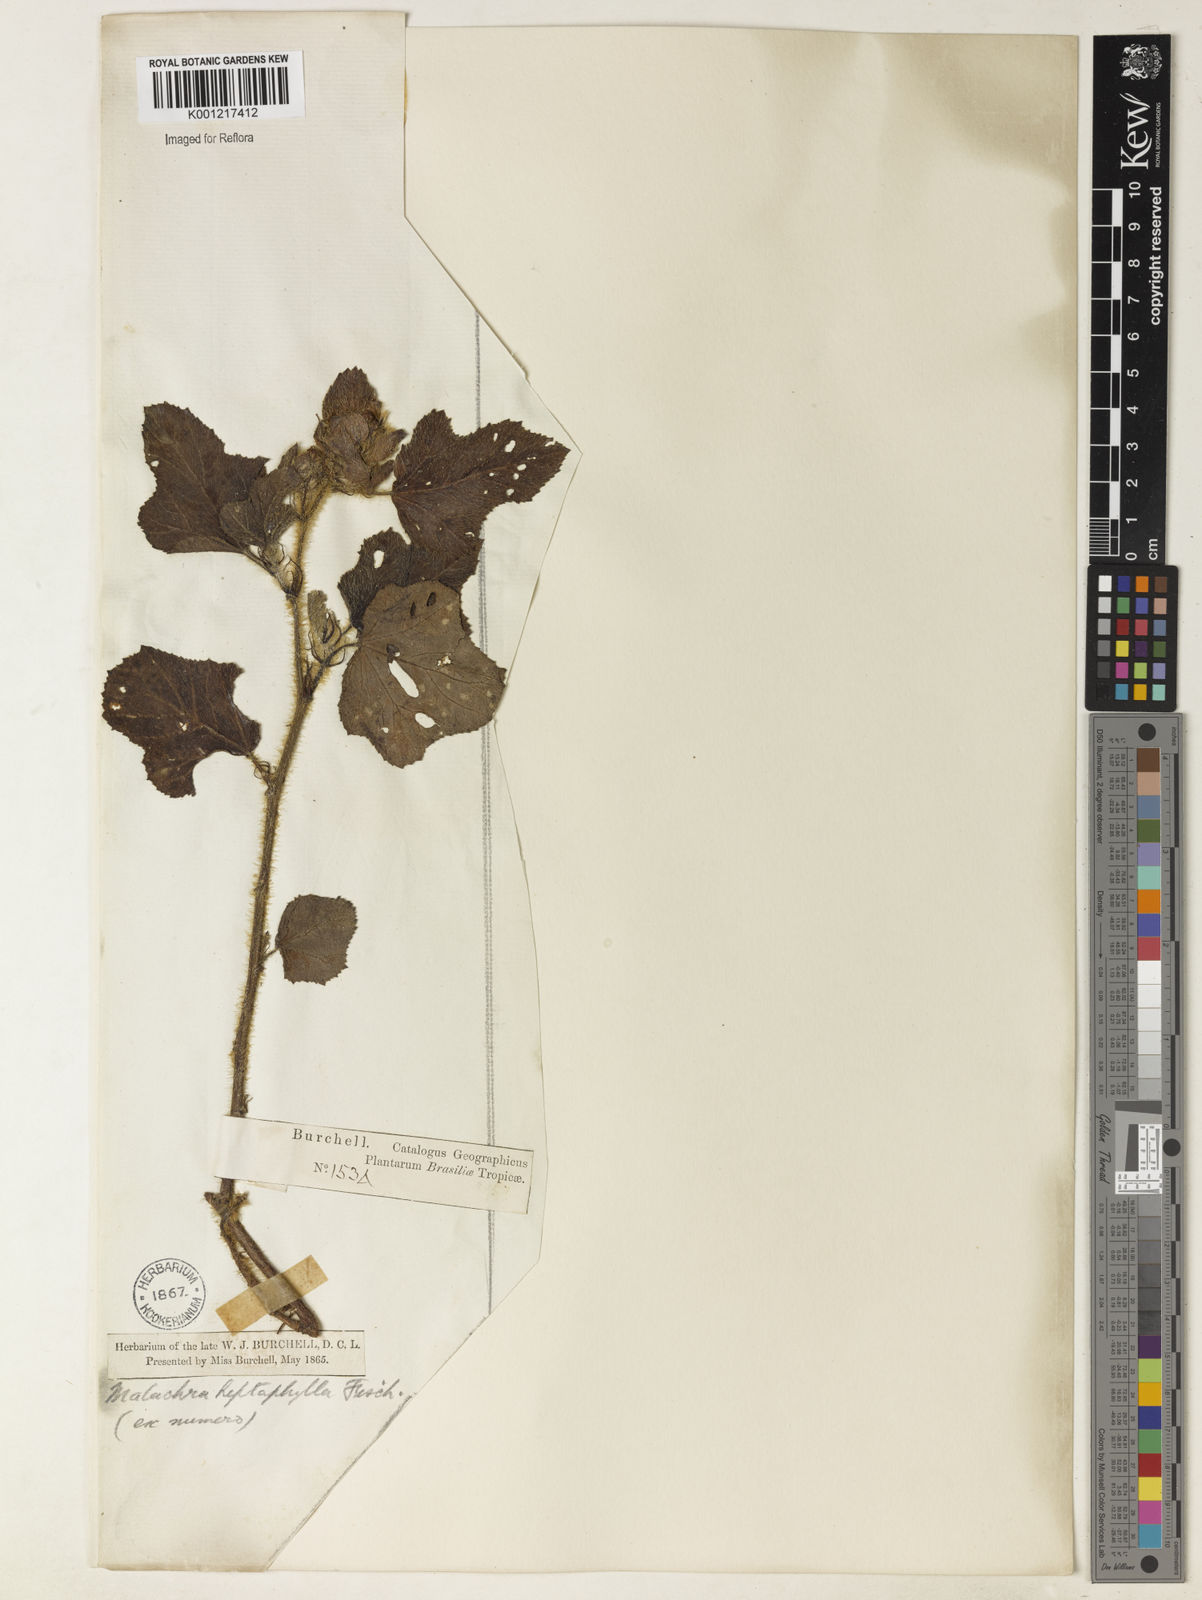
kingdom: Plantae
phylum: Tracheophyta
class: Magnoliopsida
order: Malvales
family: Malvaceae
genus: Malachra
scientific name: Malachra capitata
